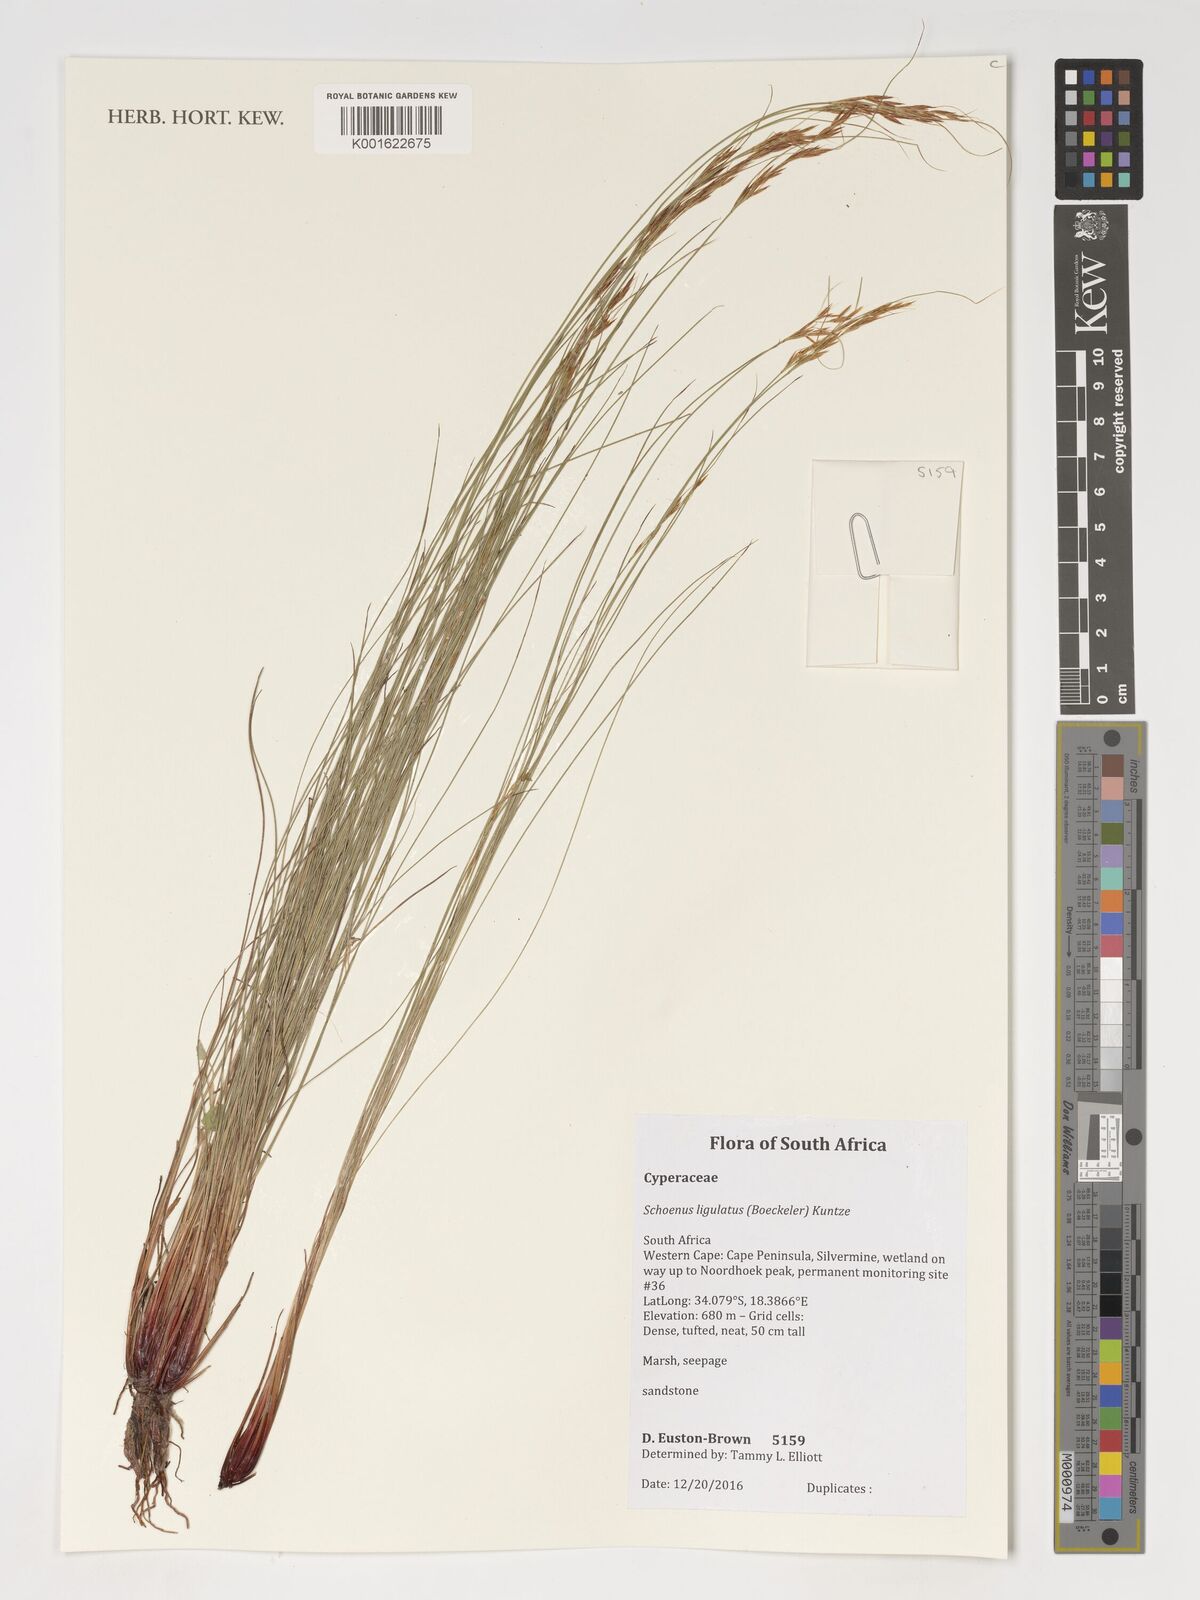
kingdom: Plantae
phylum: Tracheophyta
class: Liliopsida
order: Poales
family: Cyperaceae
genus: Schoenus
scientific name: Schoenus ligulatus
